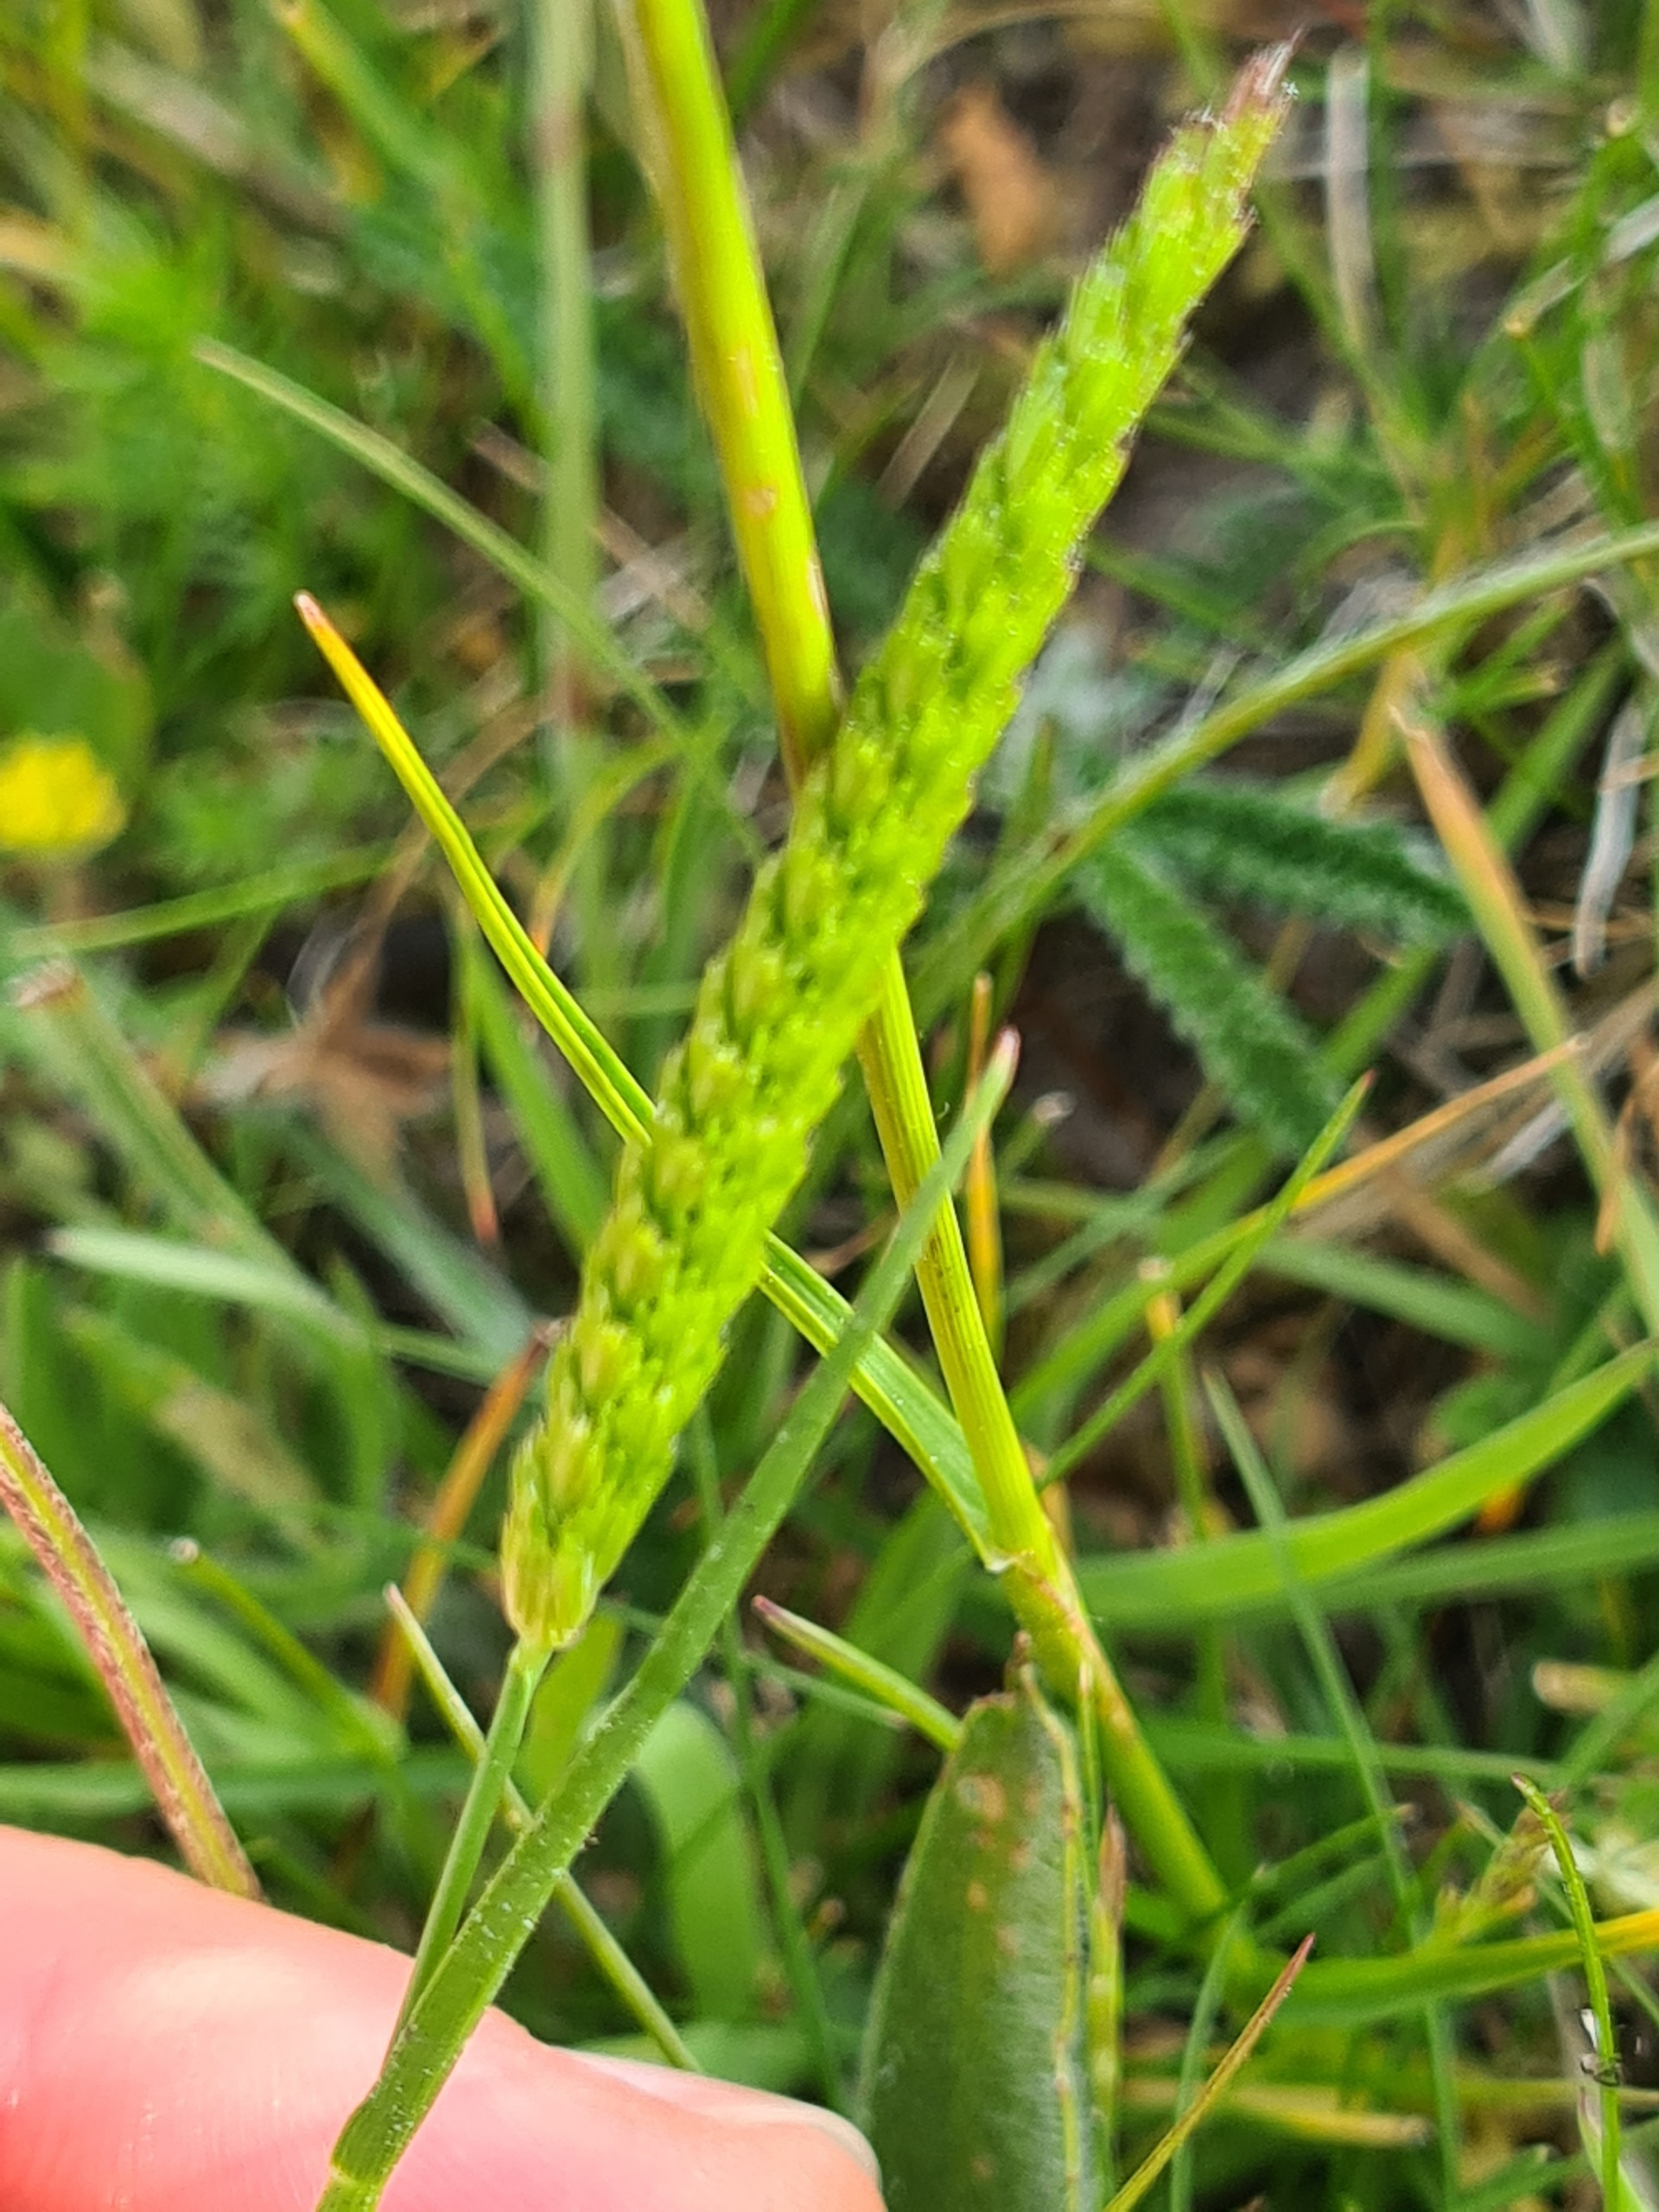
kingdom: Plantae
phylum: Tracheophyta
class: Liliopsida
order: Poales
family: Poaceae
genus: Cynosurus
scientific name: Cynosurus cristatus
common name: Kamgræs
